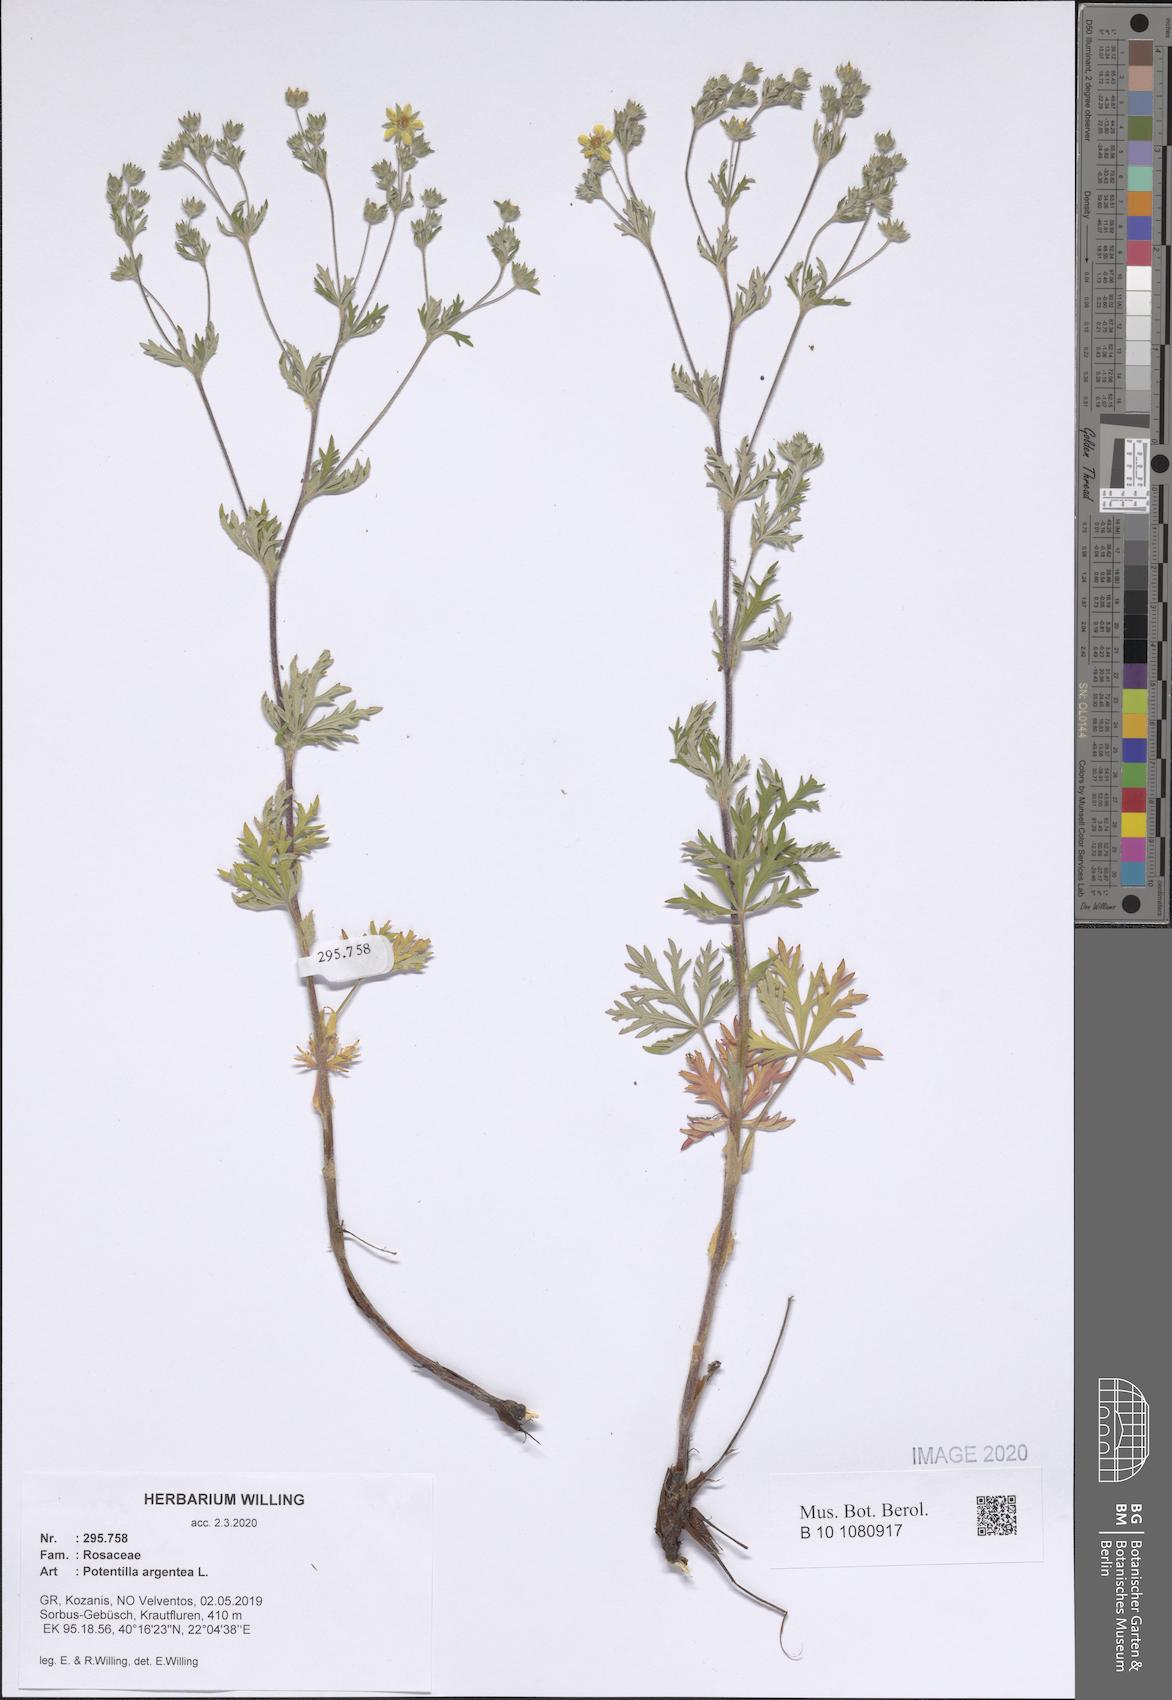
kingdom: Plantae
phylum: Tracheophyta
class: Magnoliopsida
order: Rosales
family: Rosaceae
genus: Potentilla
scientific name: Potentilla argentea
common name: Hoary cinquefoil
